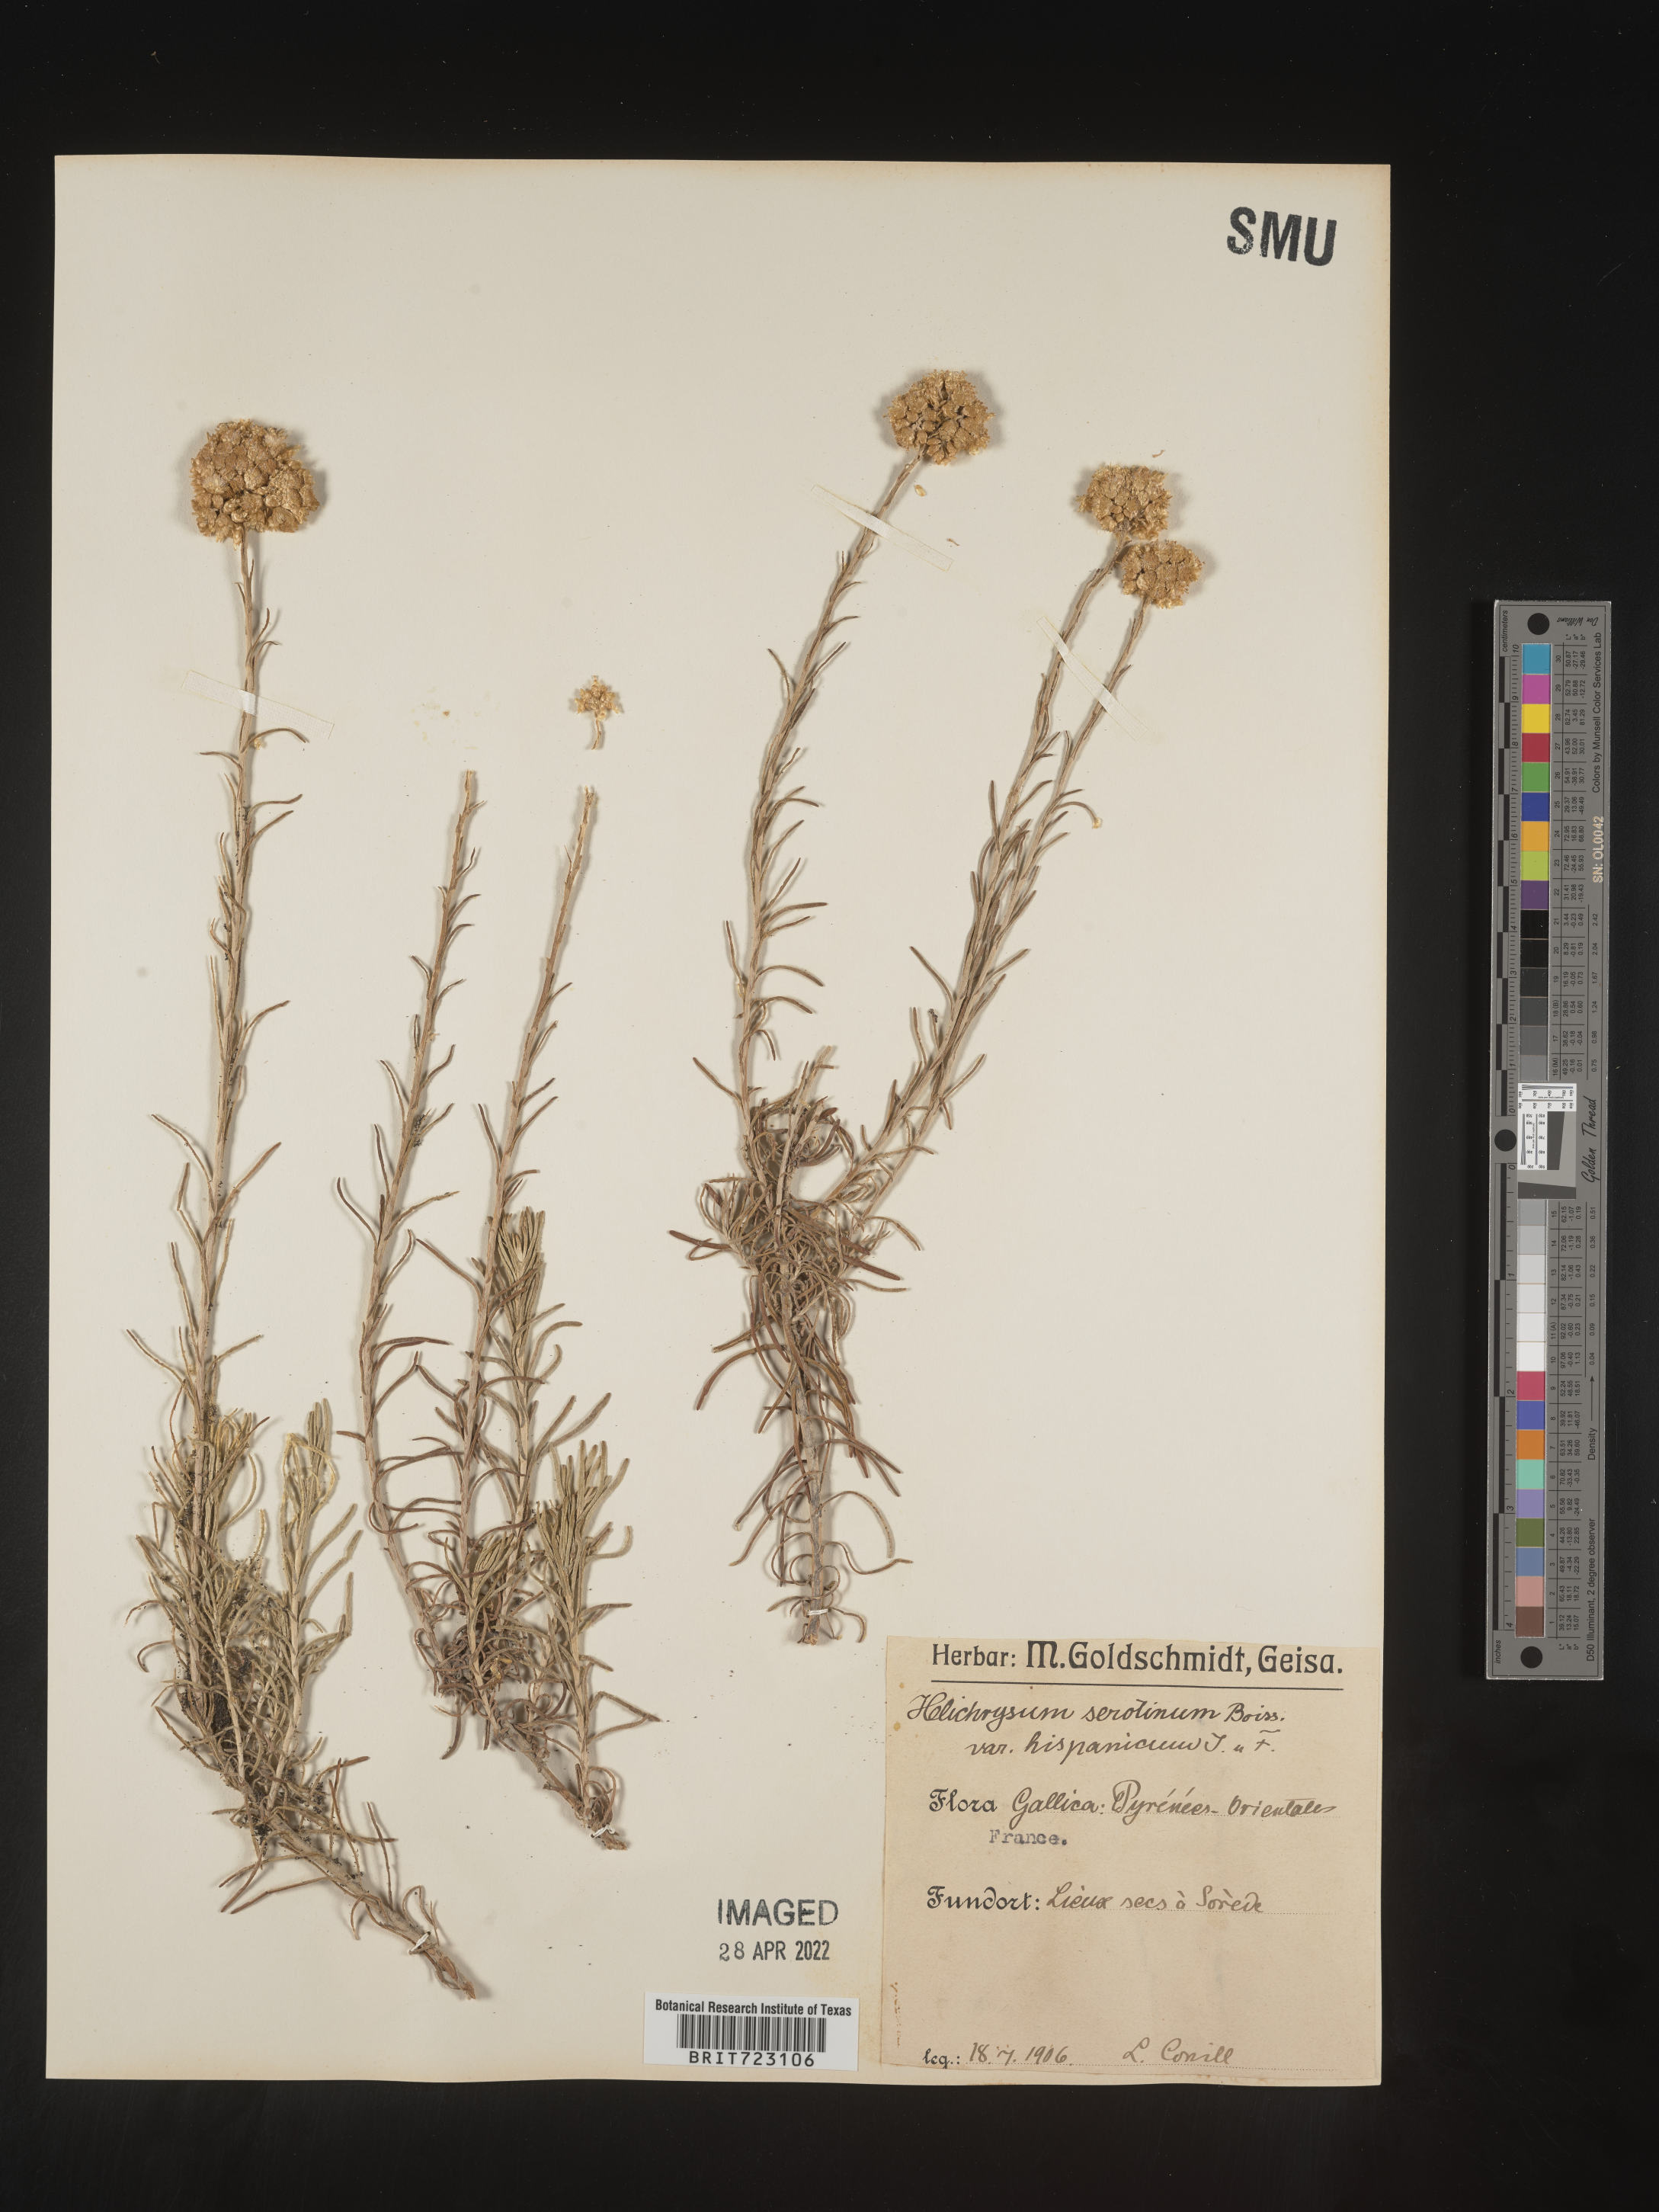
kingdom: Plantae
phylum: Tracheophyta
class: Magnoliopsida
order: Asterales
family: Asteraceae
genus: Helichrysum
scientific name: Helichrysum serotinum
